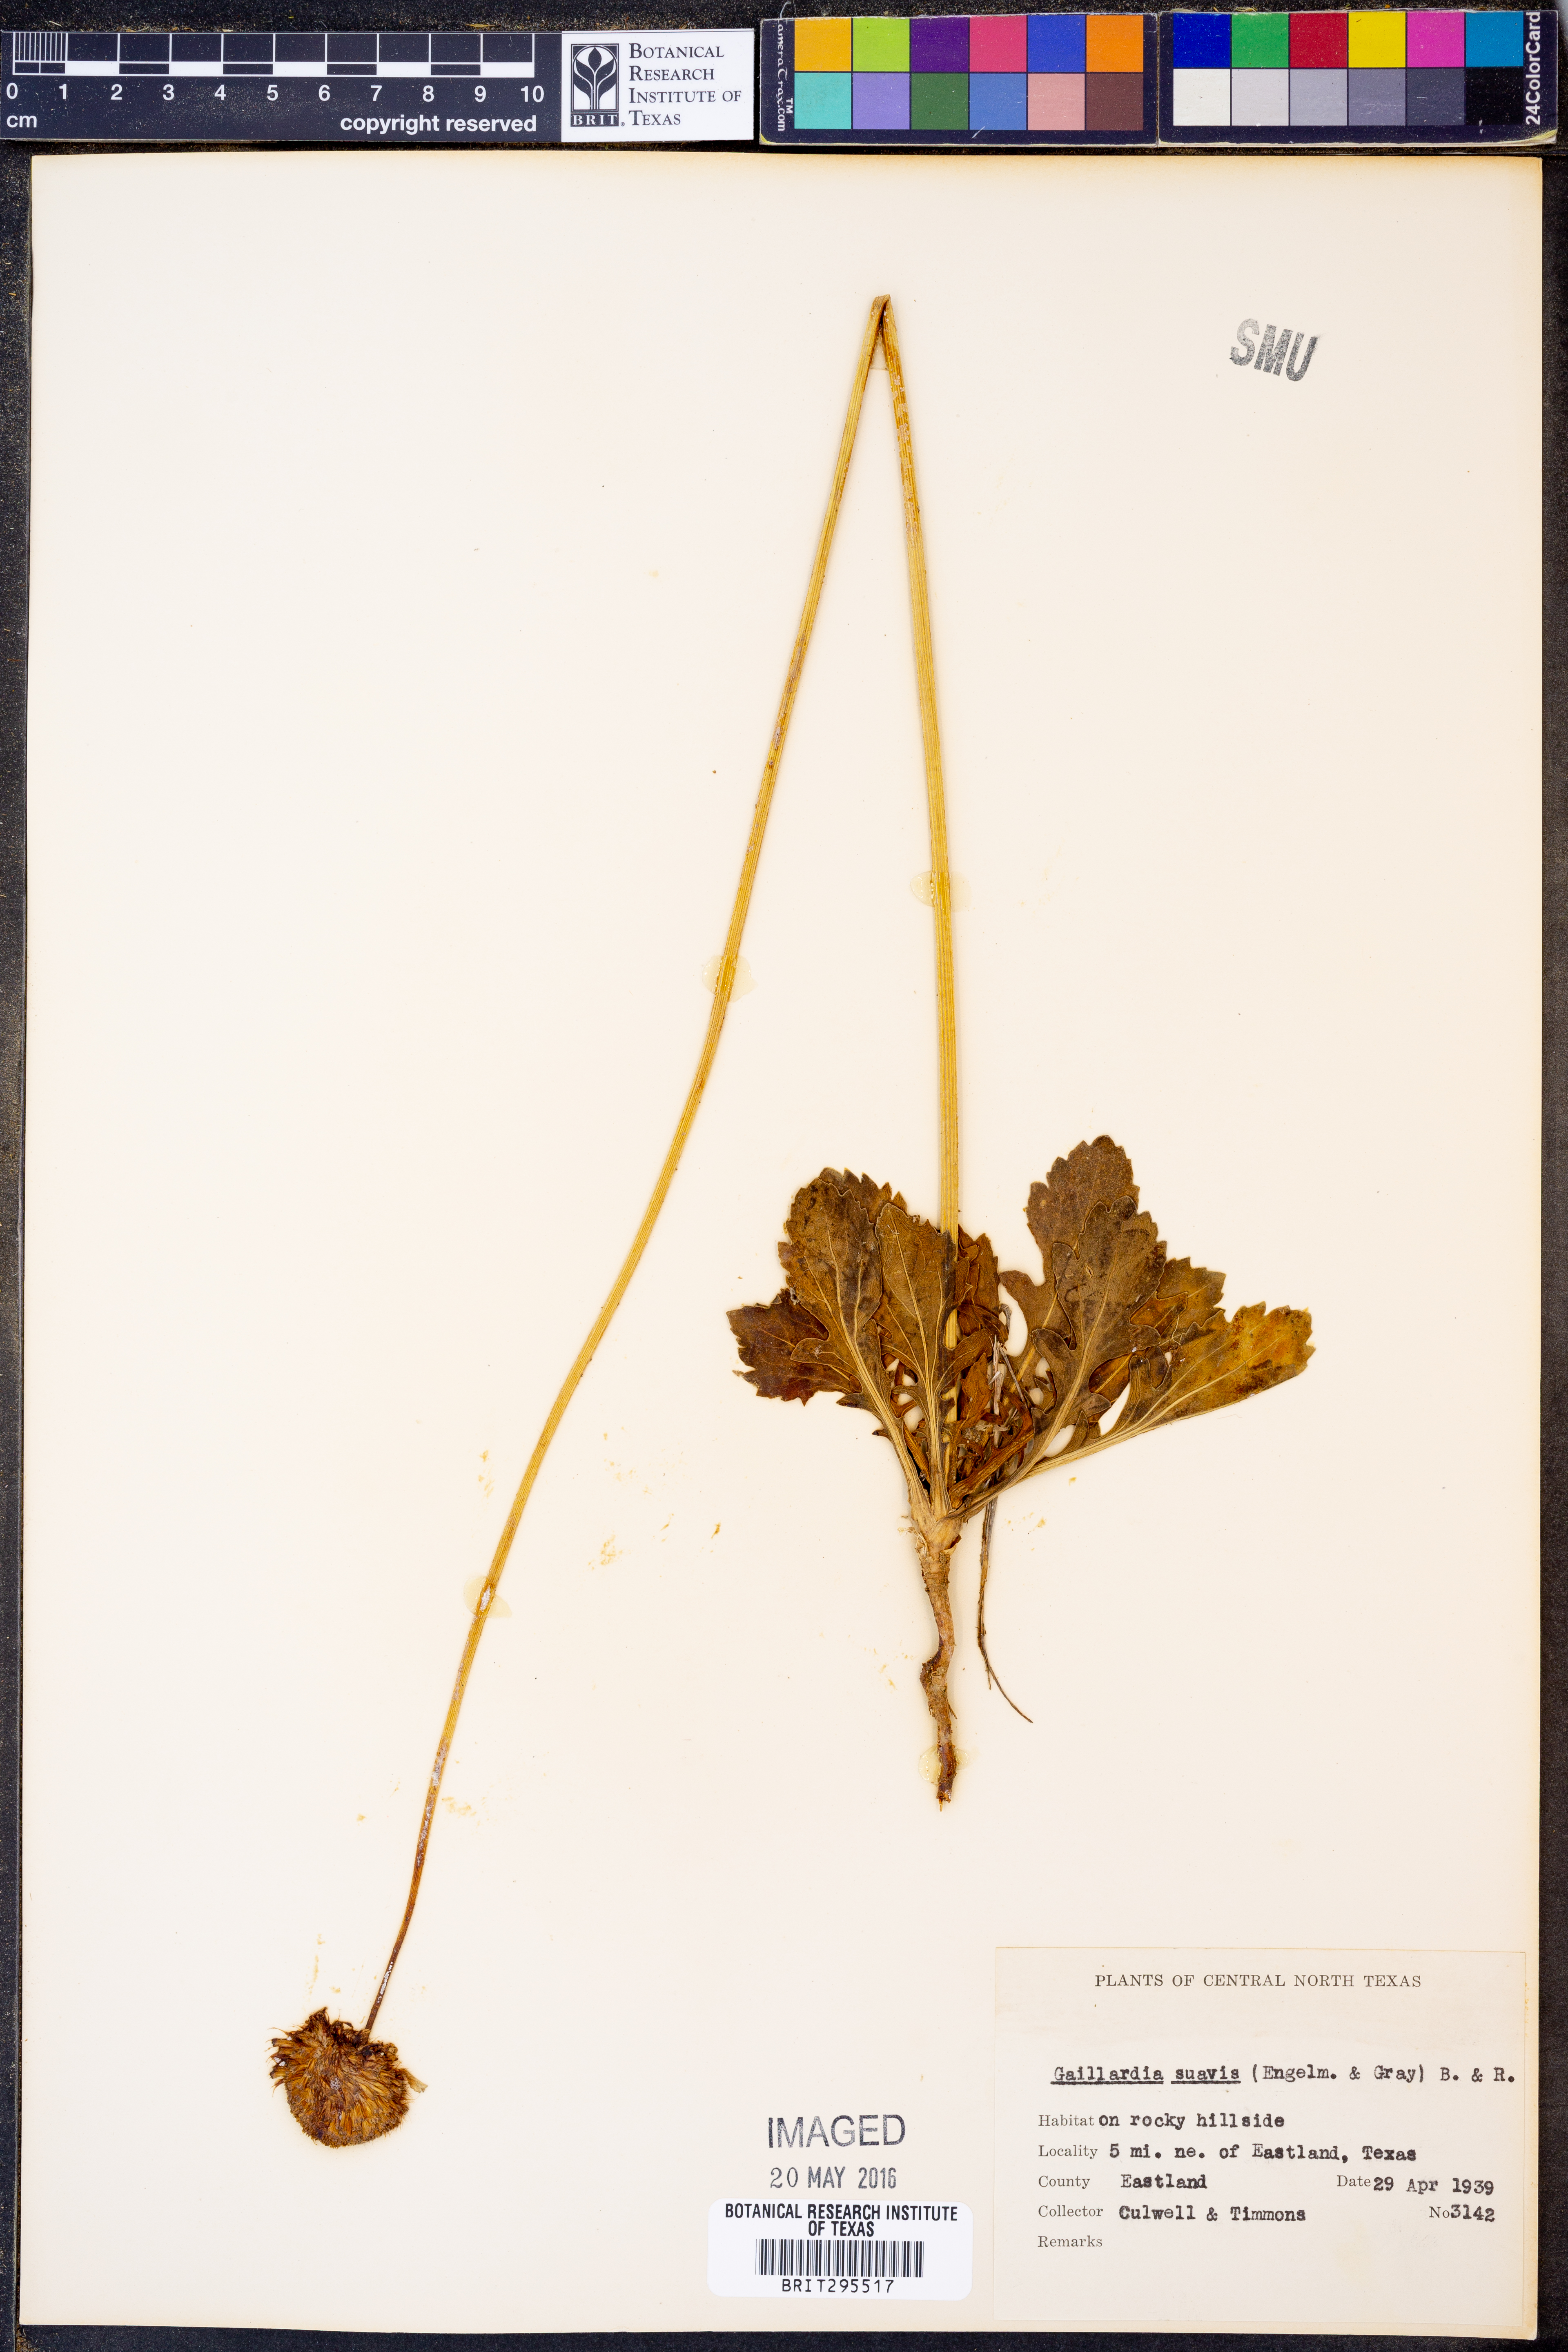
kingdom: Plantae
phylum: Tracheophyta
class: Magnoliopsida
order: Asterales
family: Asteraceae
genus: Gaillardia
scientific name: Gaillardia suavis
